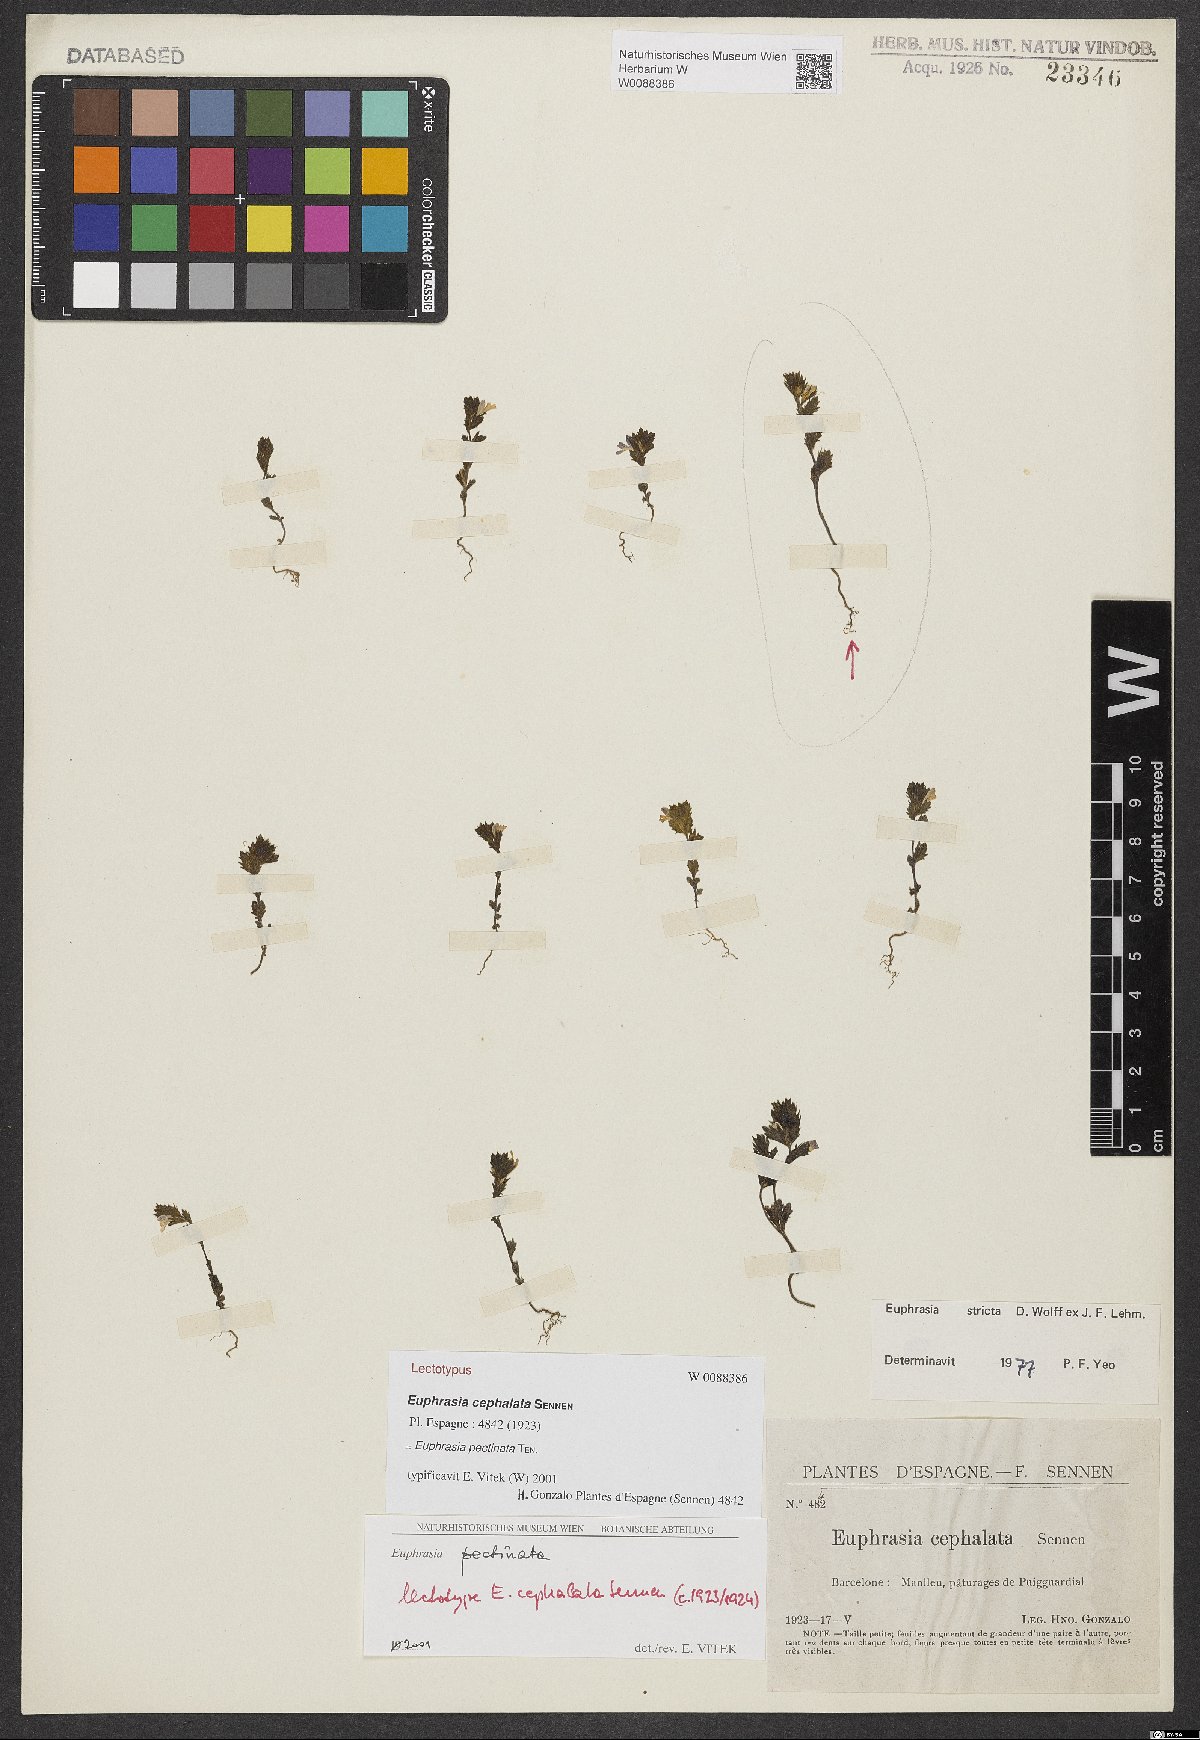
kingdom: Plantae
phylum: Tracheophyta
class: Magnoliopsida
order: Lamiales
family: Orobanchaceae
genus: Euphrasia
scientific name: Euphrasia cephalata
